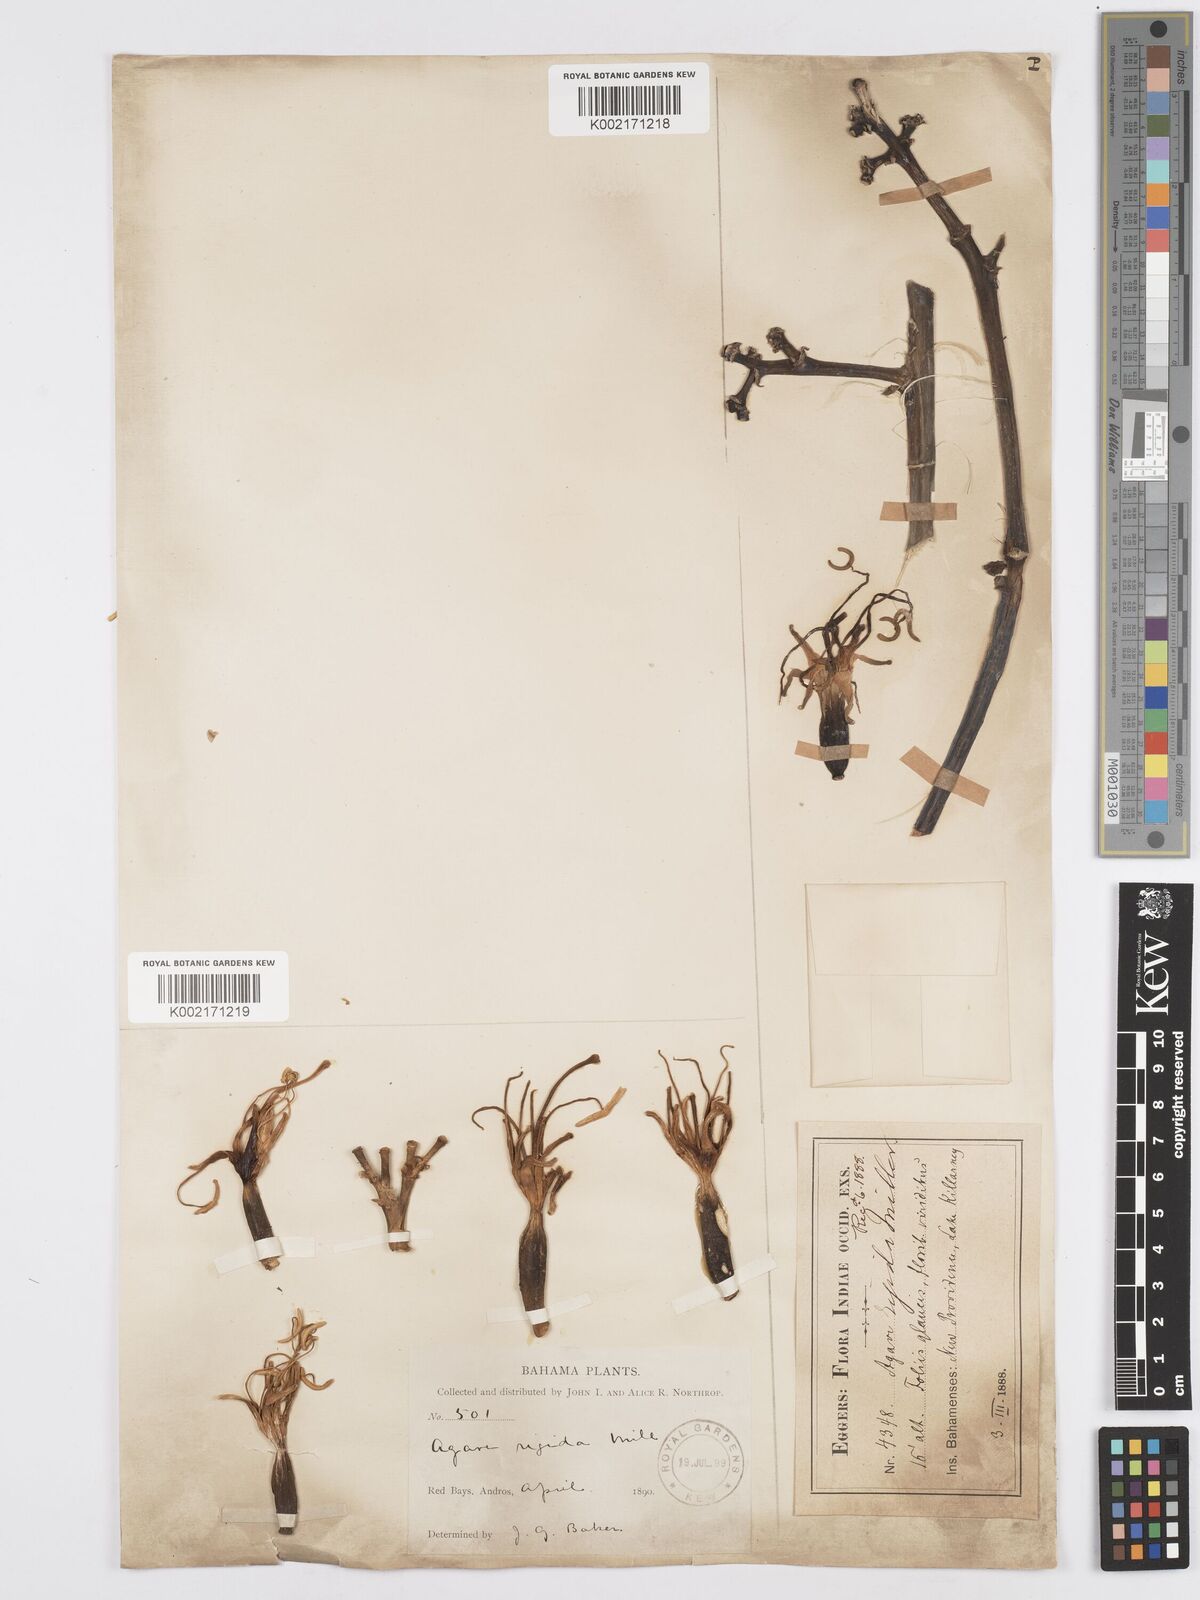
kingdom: Plantae
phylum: Tracheophyta
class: Liliopsida
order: Asparagales
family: Asparagaceae
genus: Agave
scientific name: Agave angustifolia
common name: Mescal agave
